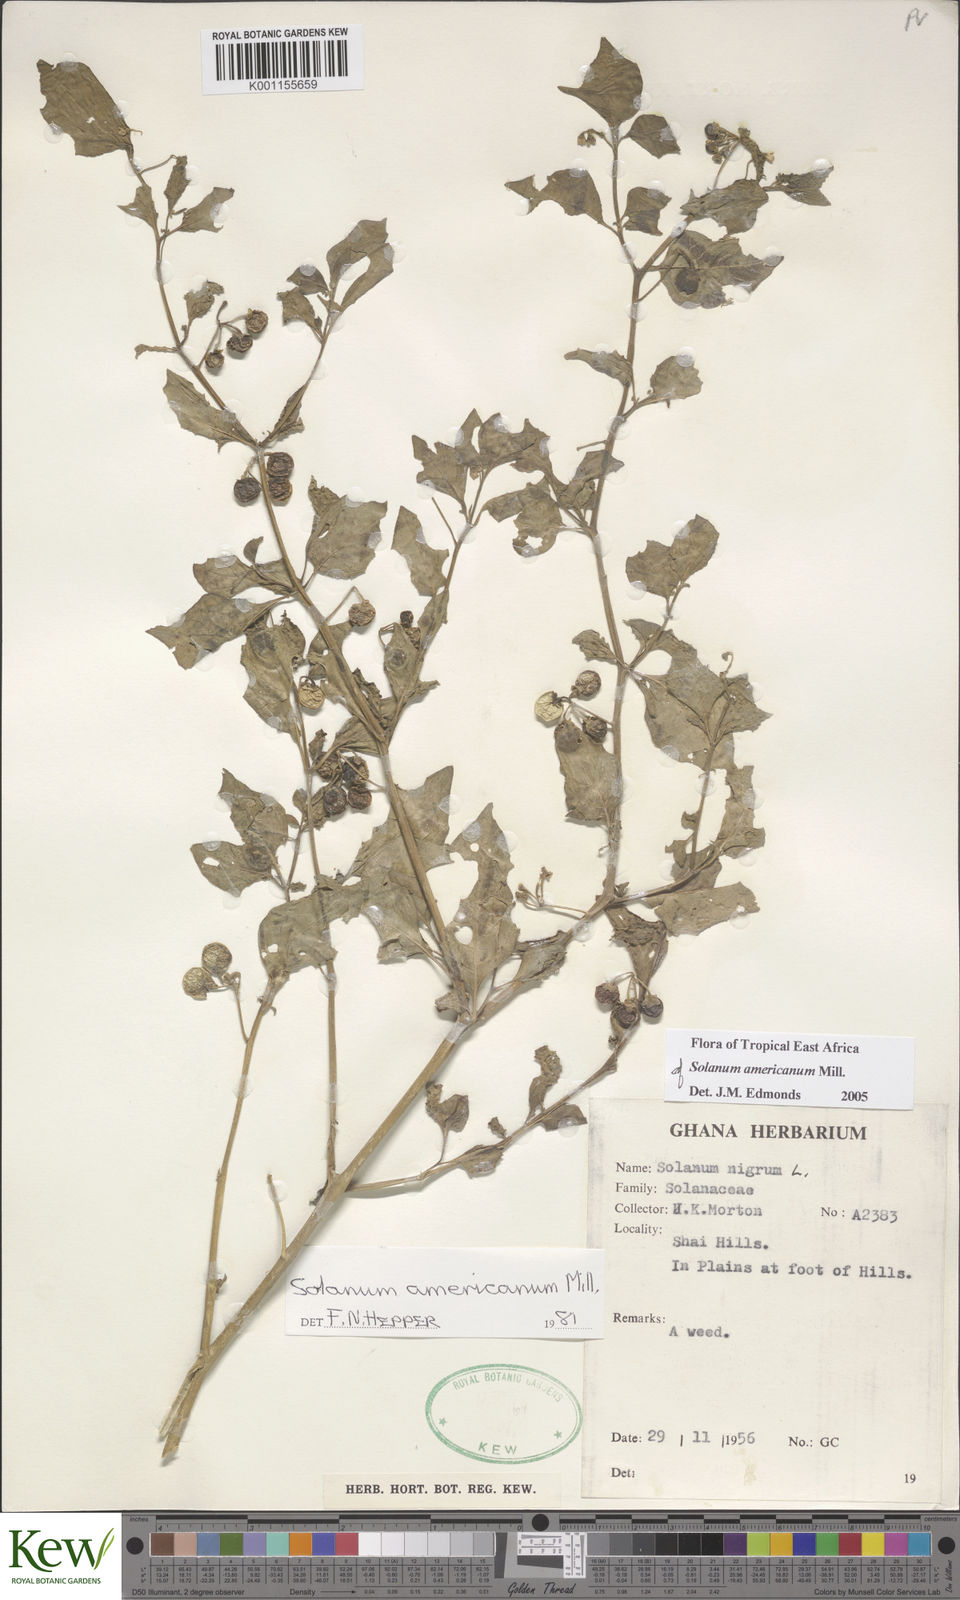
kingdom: Plantae
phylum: Tracheophyta
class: Magnoliopsida
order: Solanales
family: Solanaceae
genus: Solanum
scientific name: Solanum scabrum
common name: Garden-huckleberry
